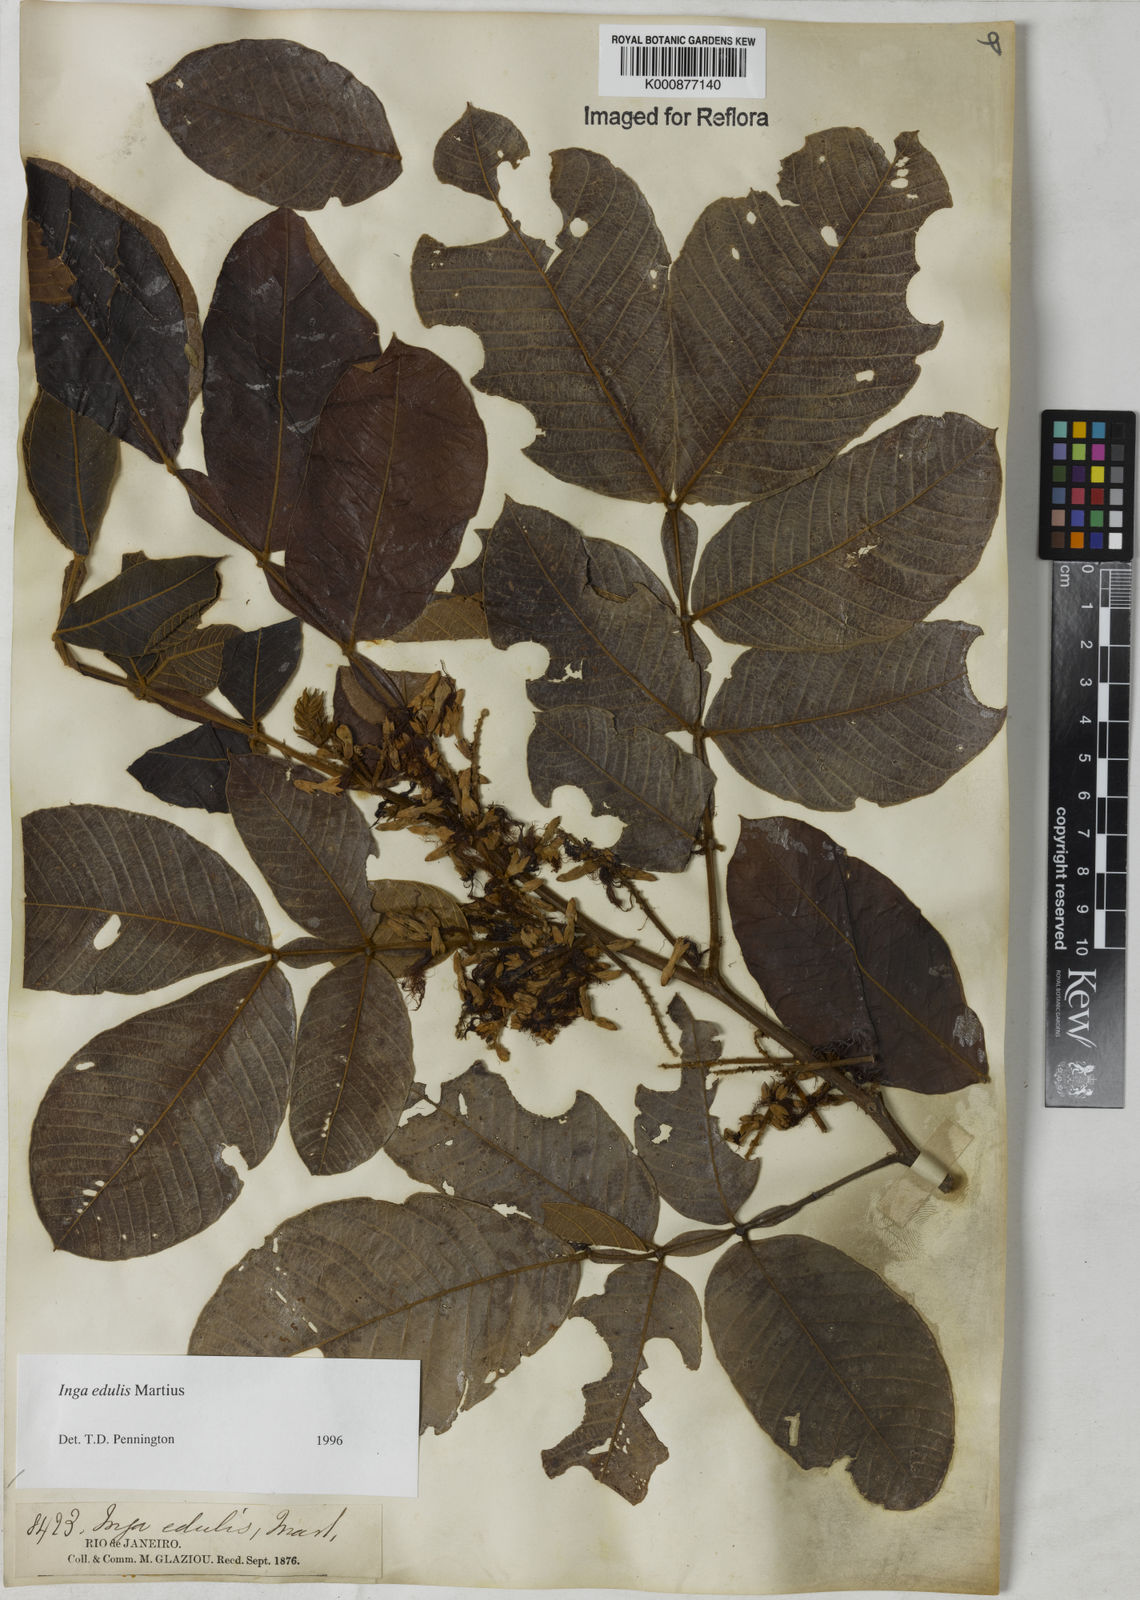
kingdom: Plantae
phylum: Tracheophyta
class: Magnoliopsida
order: Fabales
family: Fabaceae
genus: Inga
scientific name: Inga edulis
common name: Ice cream bean
